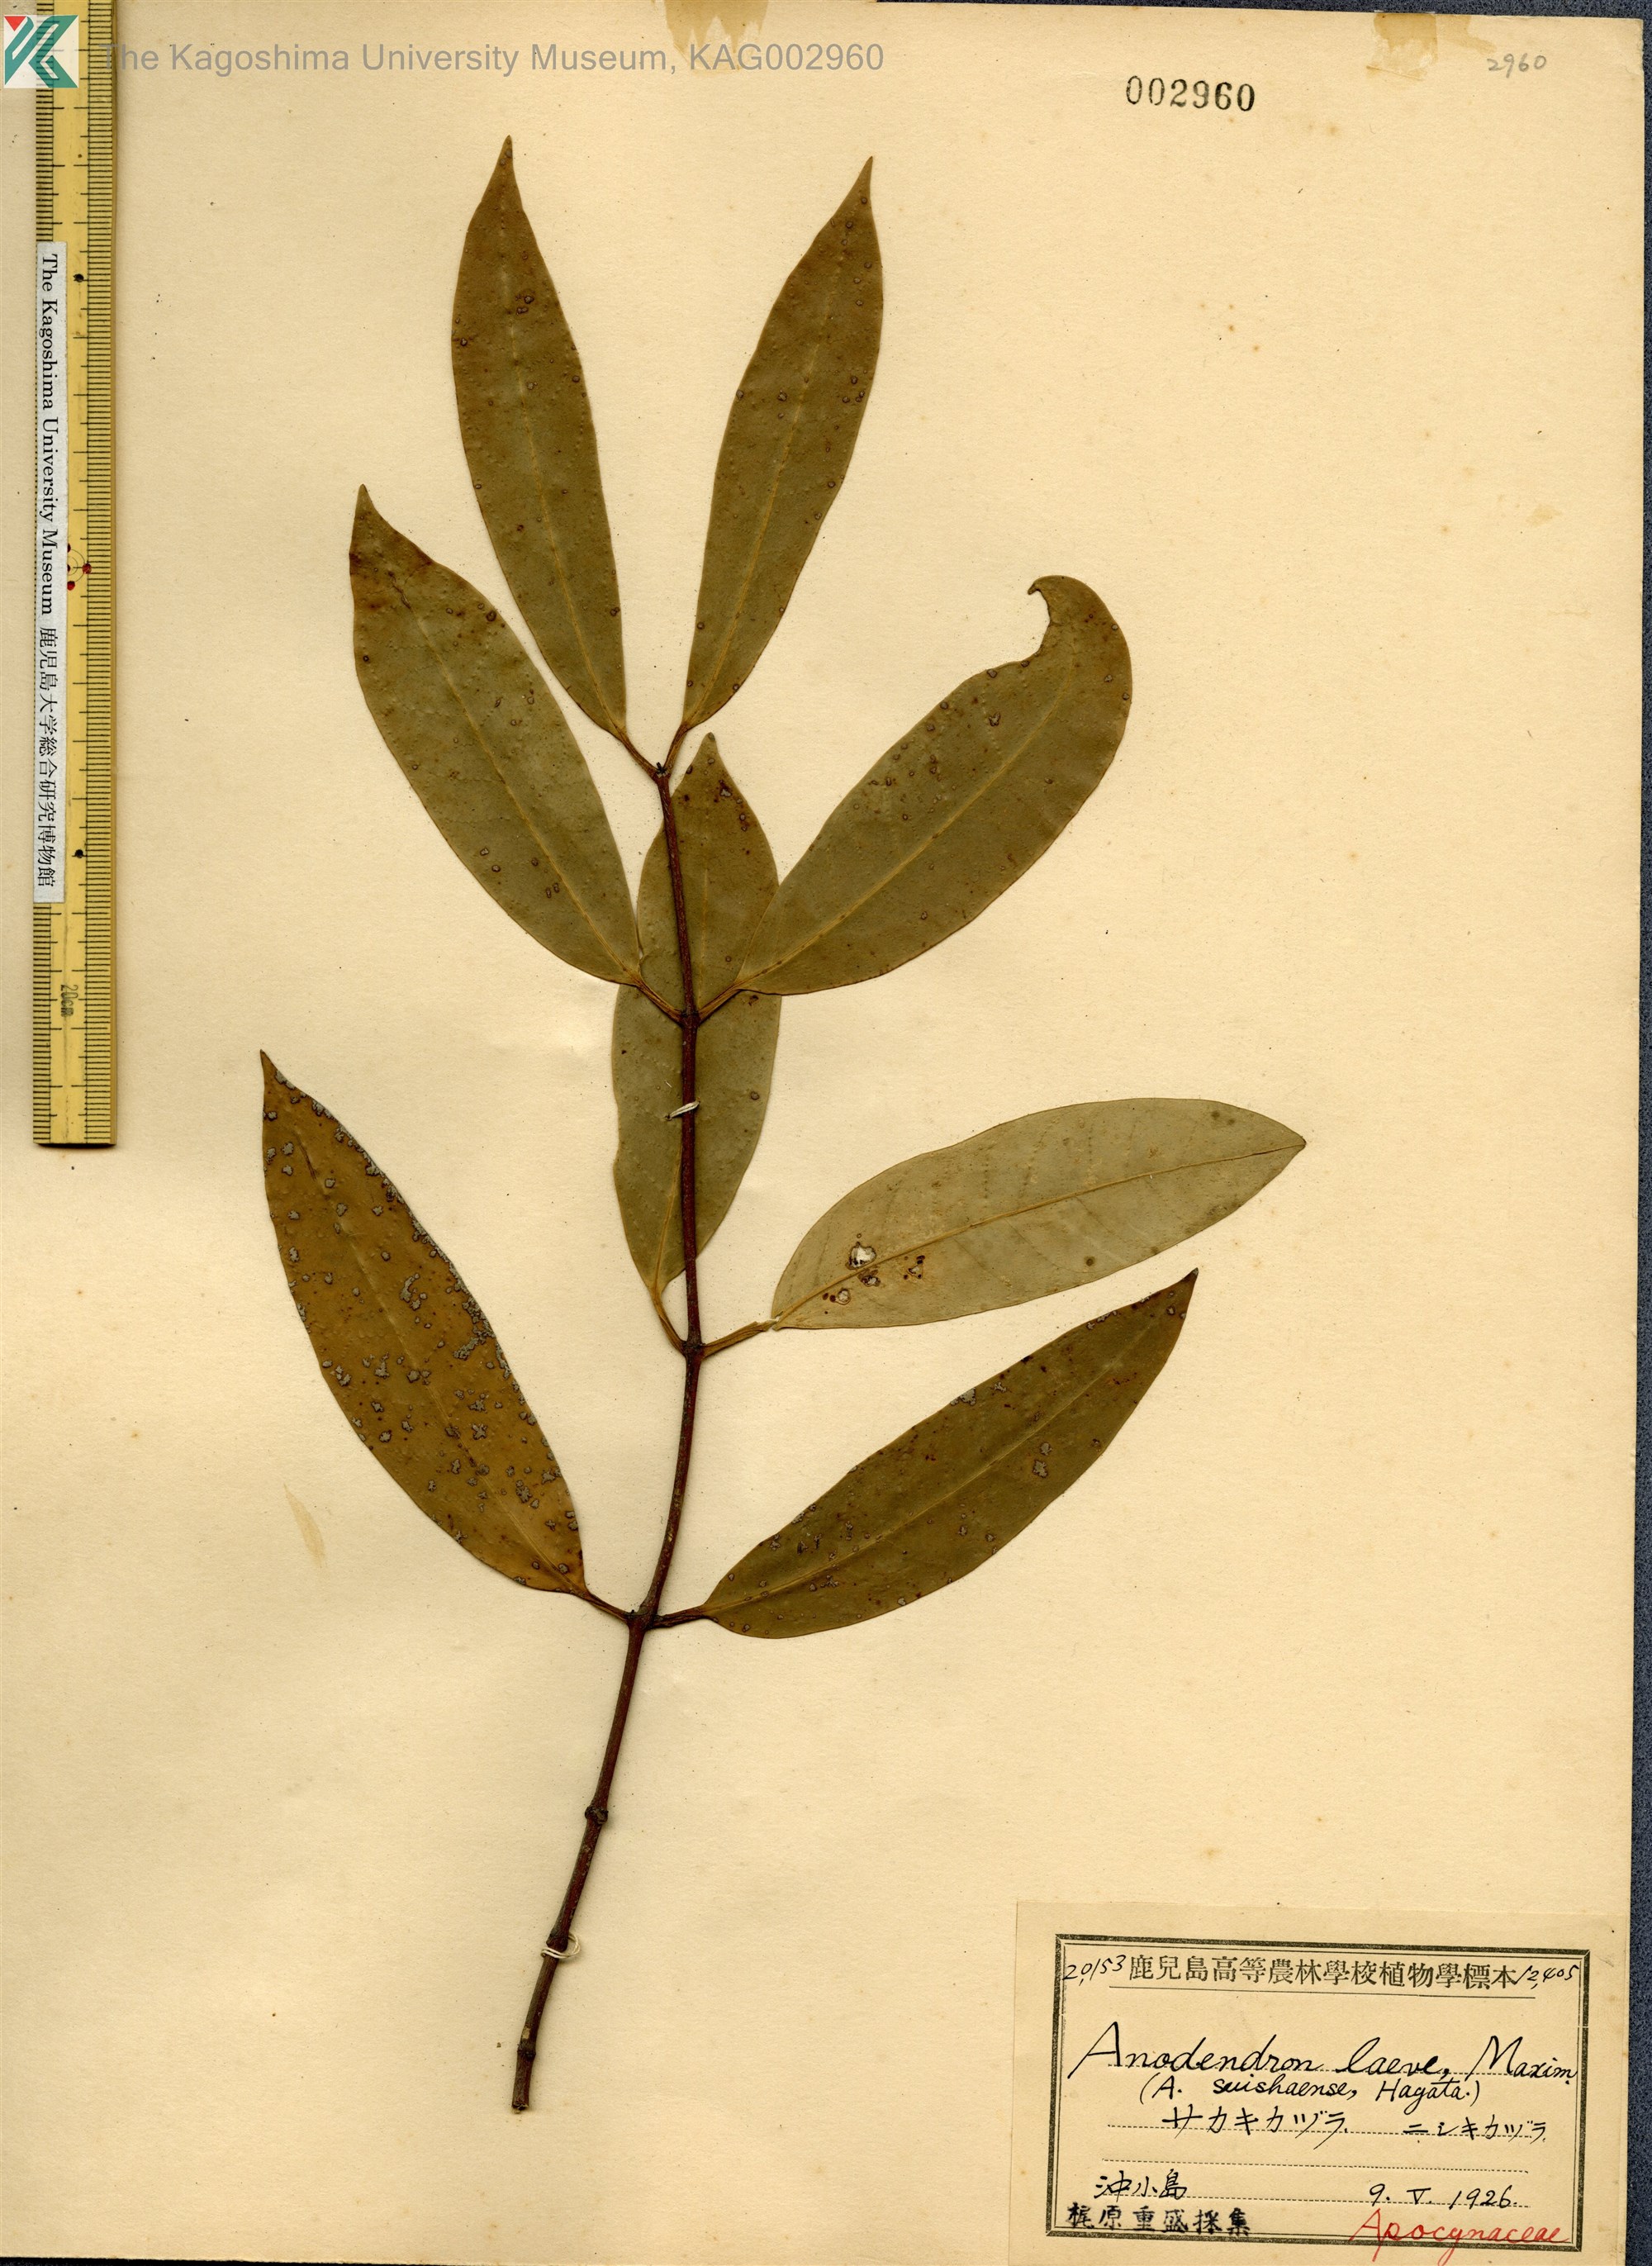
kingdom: Plantae
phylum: Tracheophyta
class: Magnoliopsida
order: Gentianales
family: Apocynaceae
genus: Anodendron
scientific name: Anodendron affine
